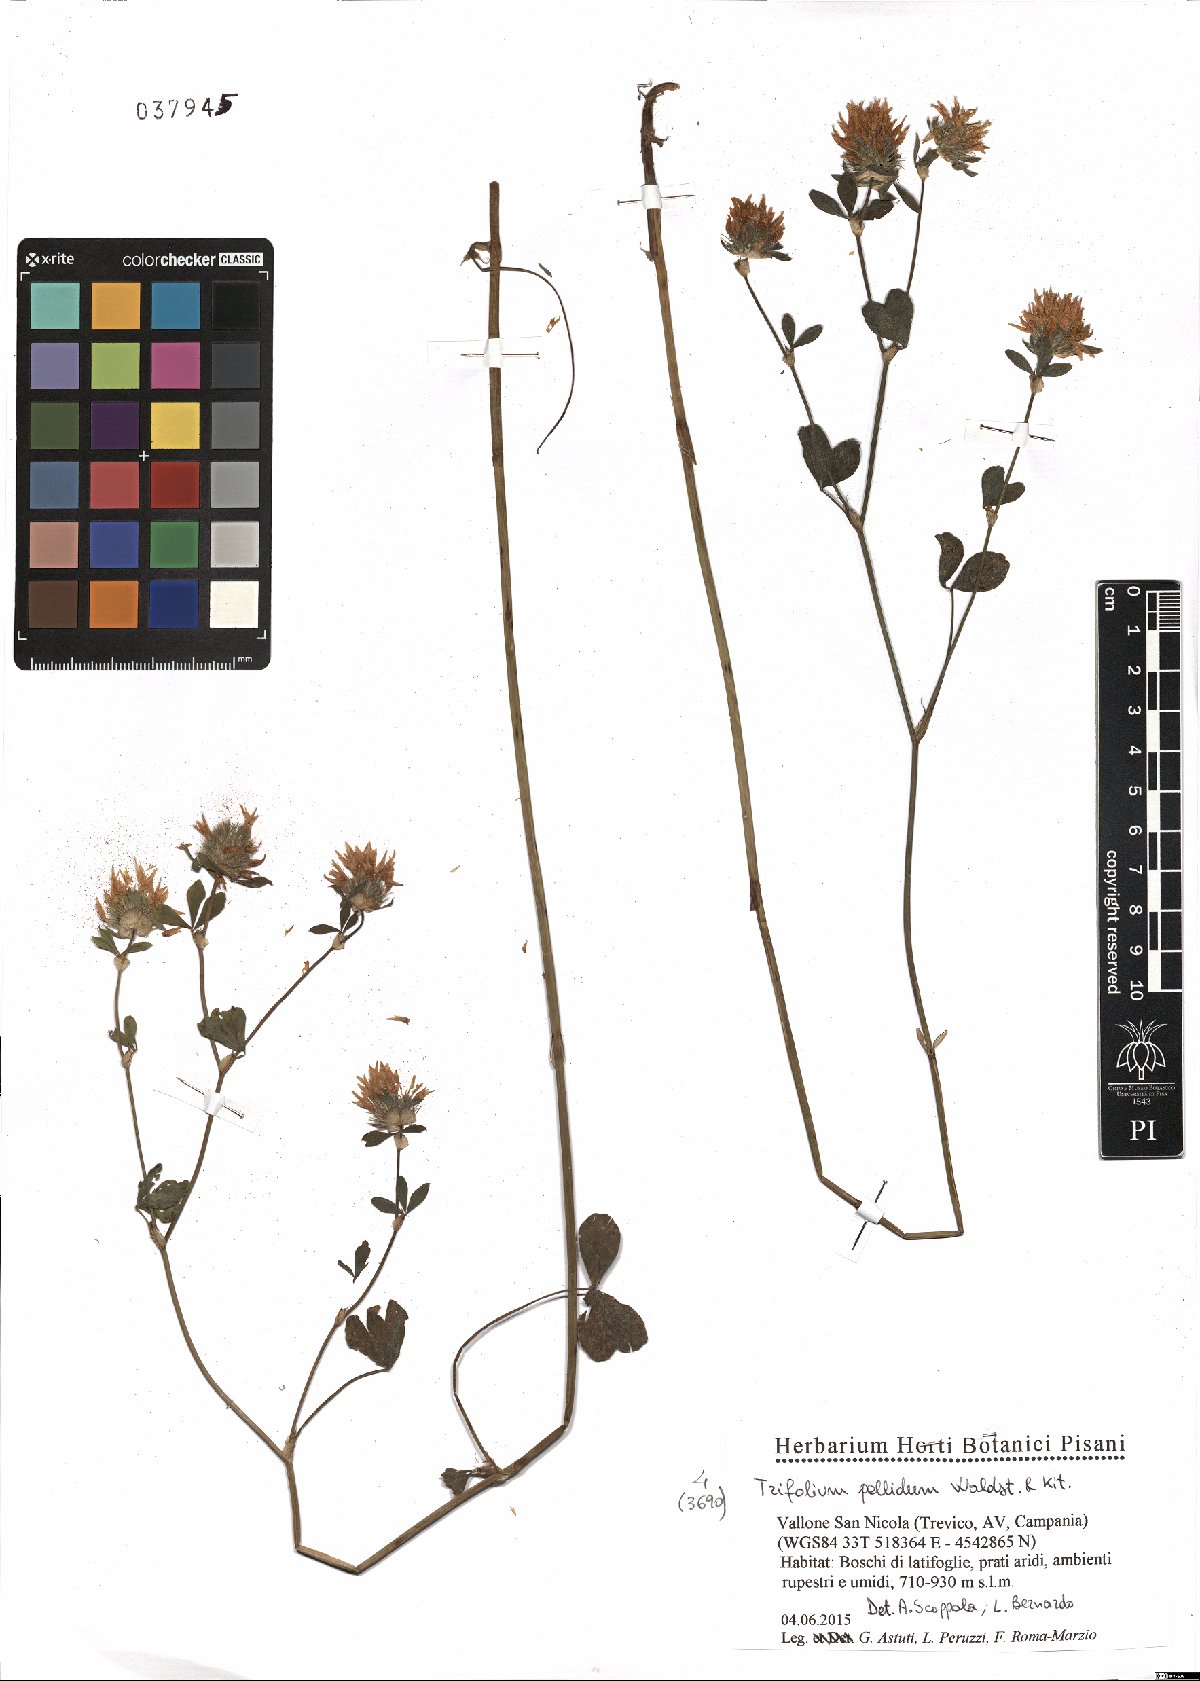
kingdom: Plantae
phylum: Tracheophyta
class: Magnoliopsida
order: Fabales
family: Fabaceae
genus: Trifolium
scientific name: Trifolium pallidum
